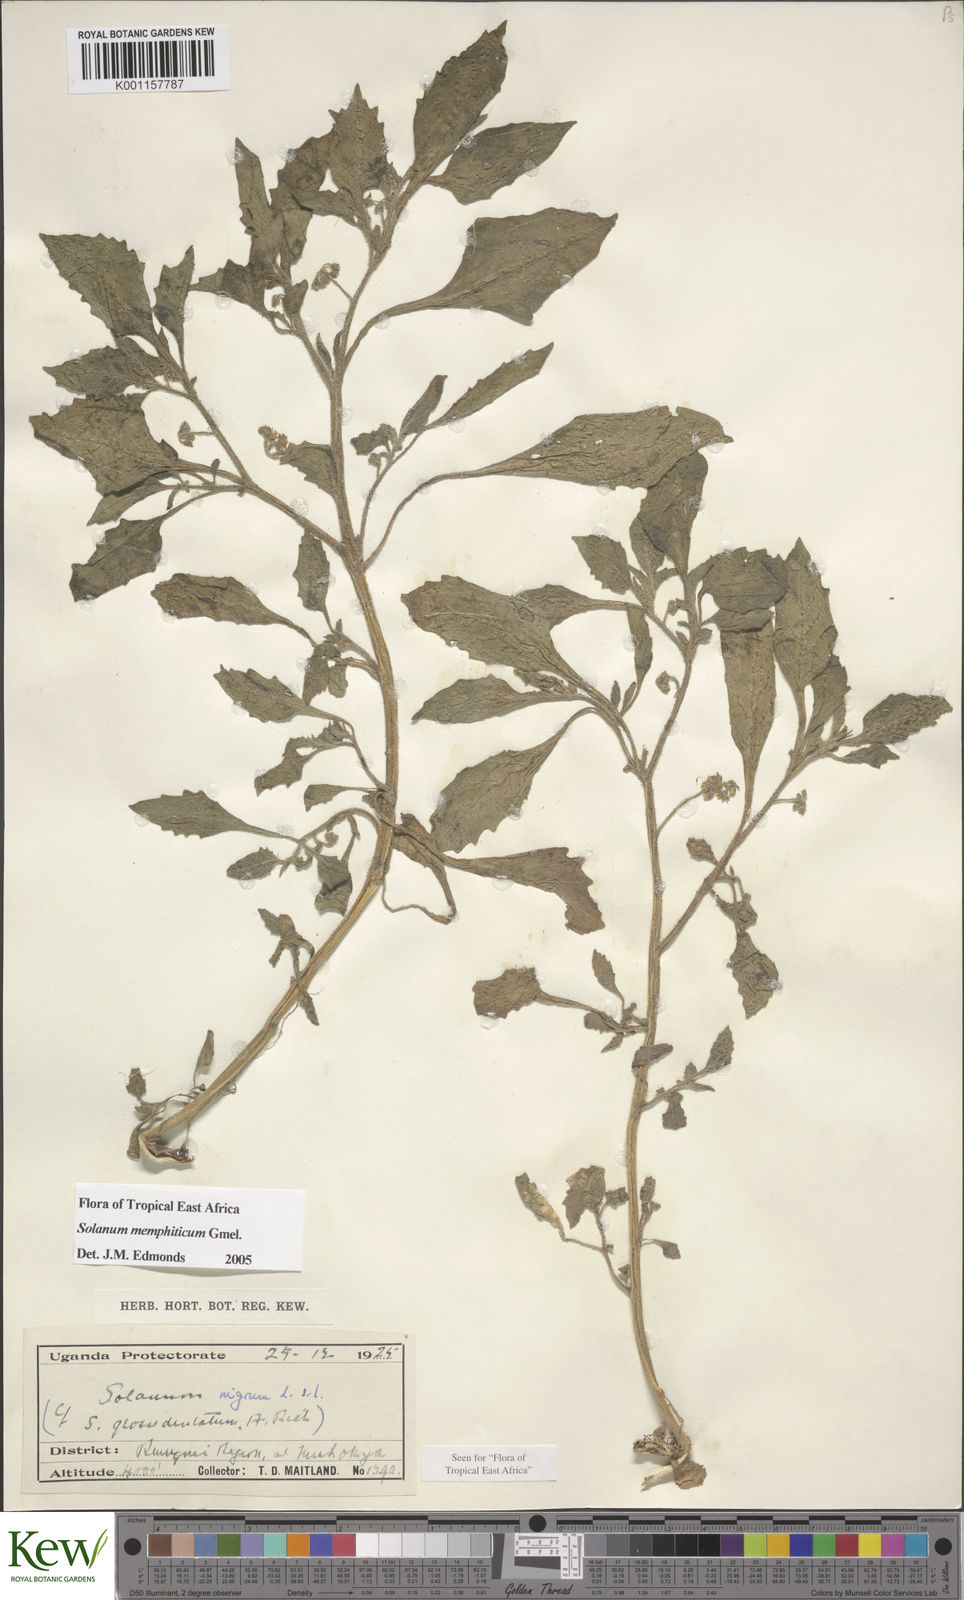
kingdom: Plantae
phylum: Tracheophyta
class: Magnoliopsida
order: Solanales
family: Solanaceae
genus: Solanum
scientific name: Solanum memphiticum
